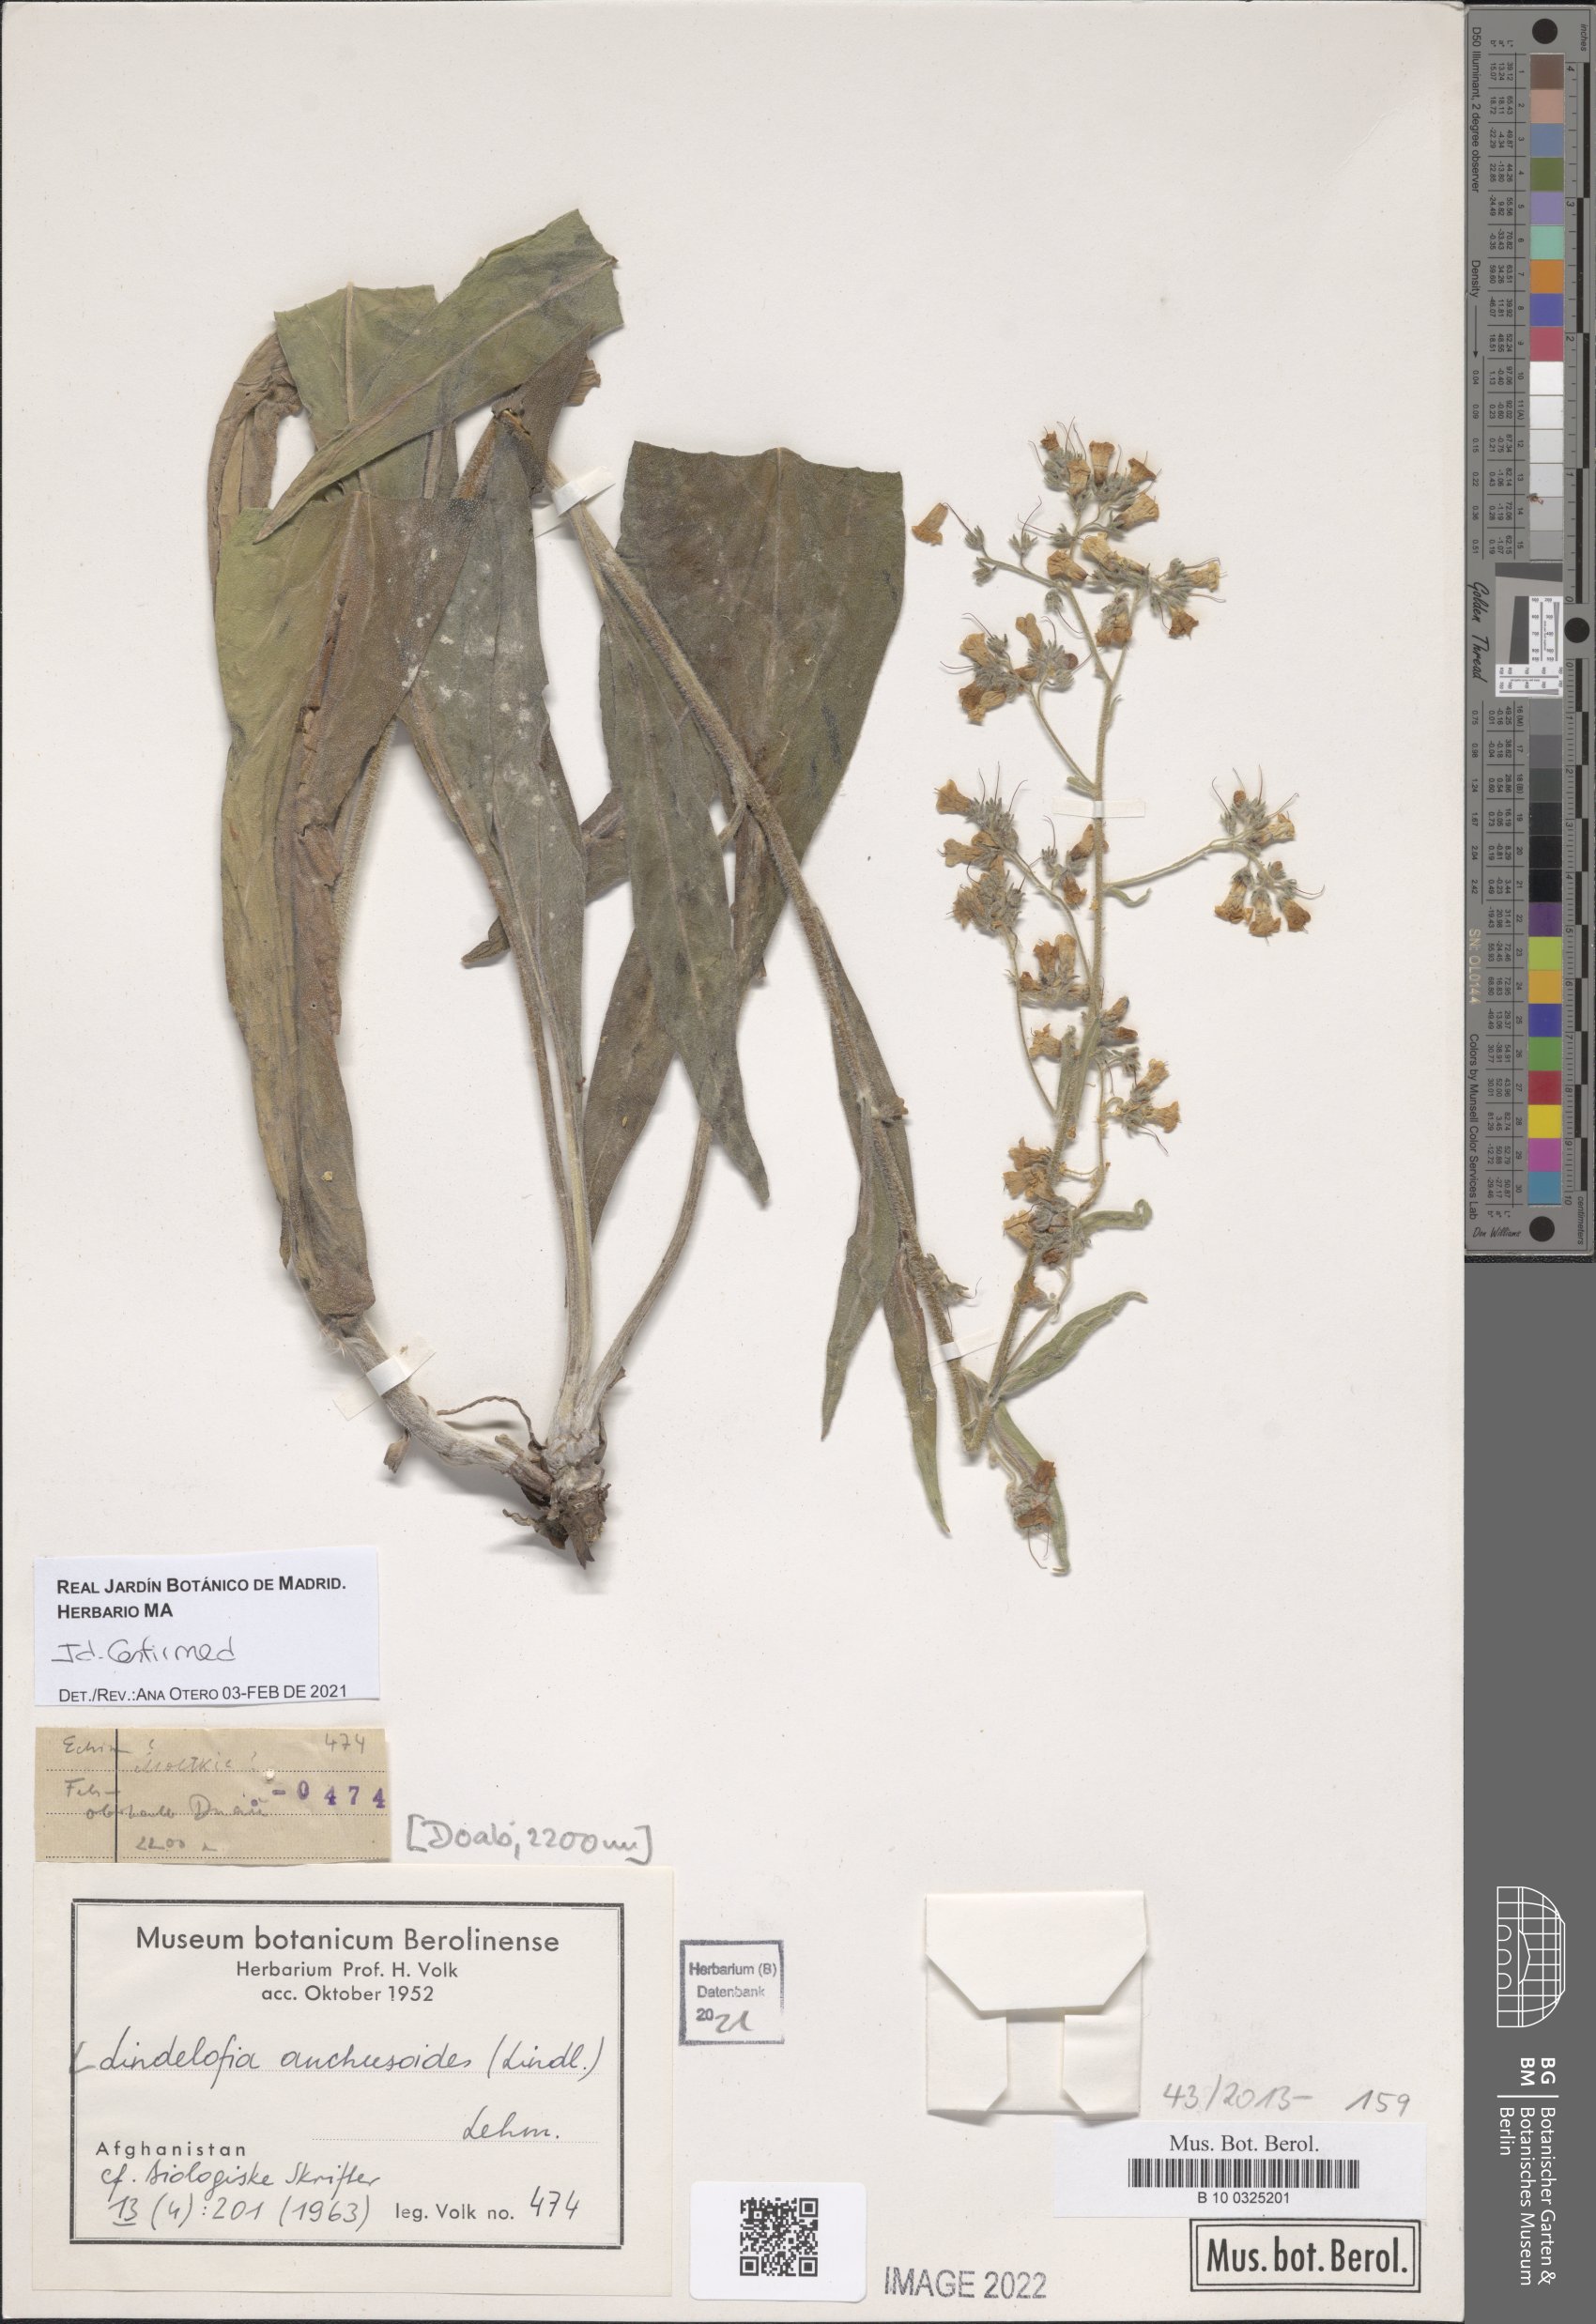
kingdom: Plantae
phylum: Tracheophyta
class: Magnoliopsida
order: Boraginales
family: Boraginaceae
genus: Lindelofia
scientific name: Lindelofia anchusoides
